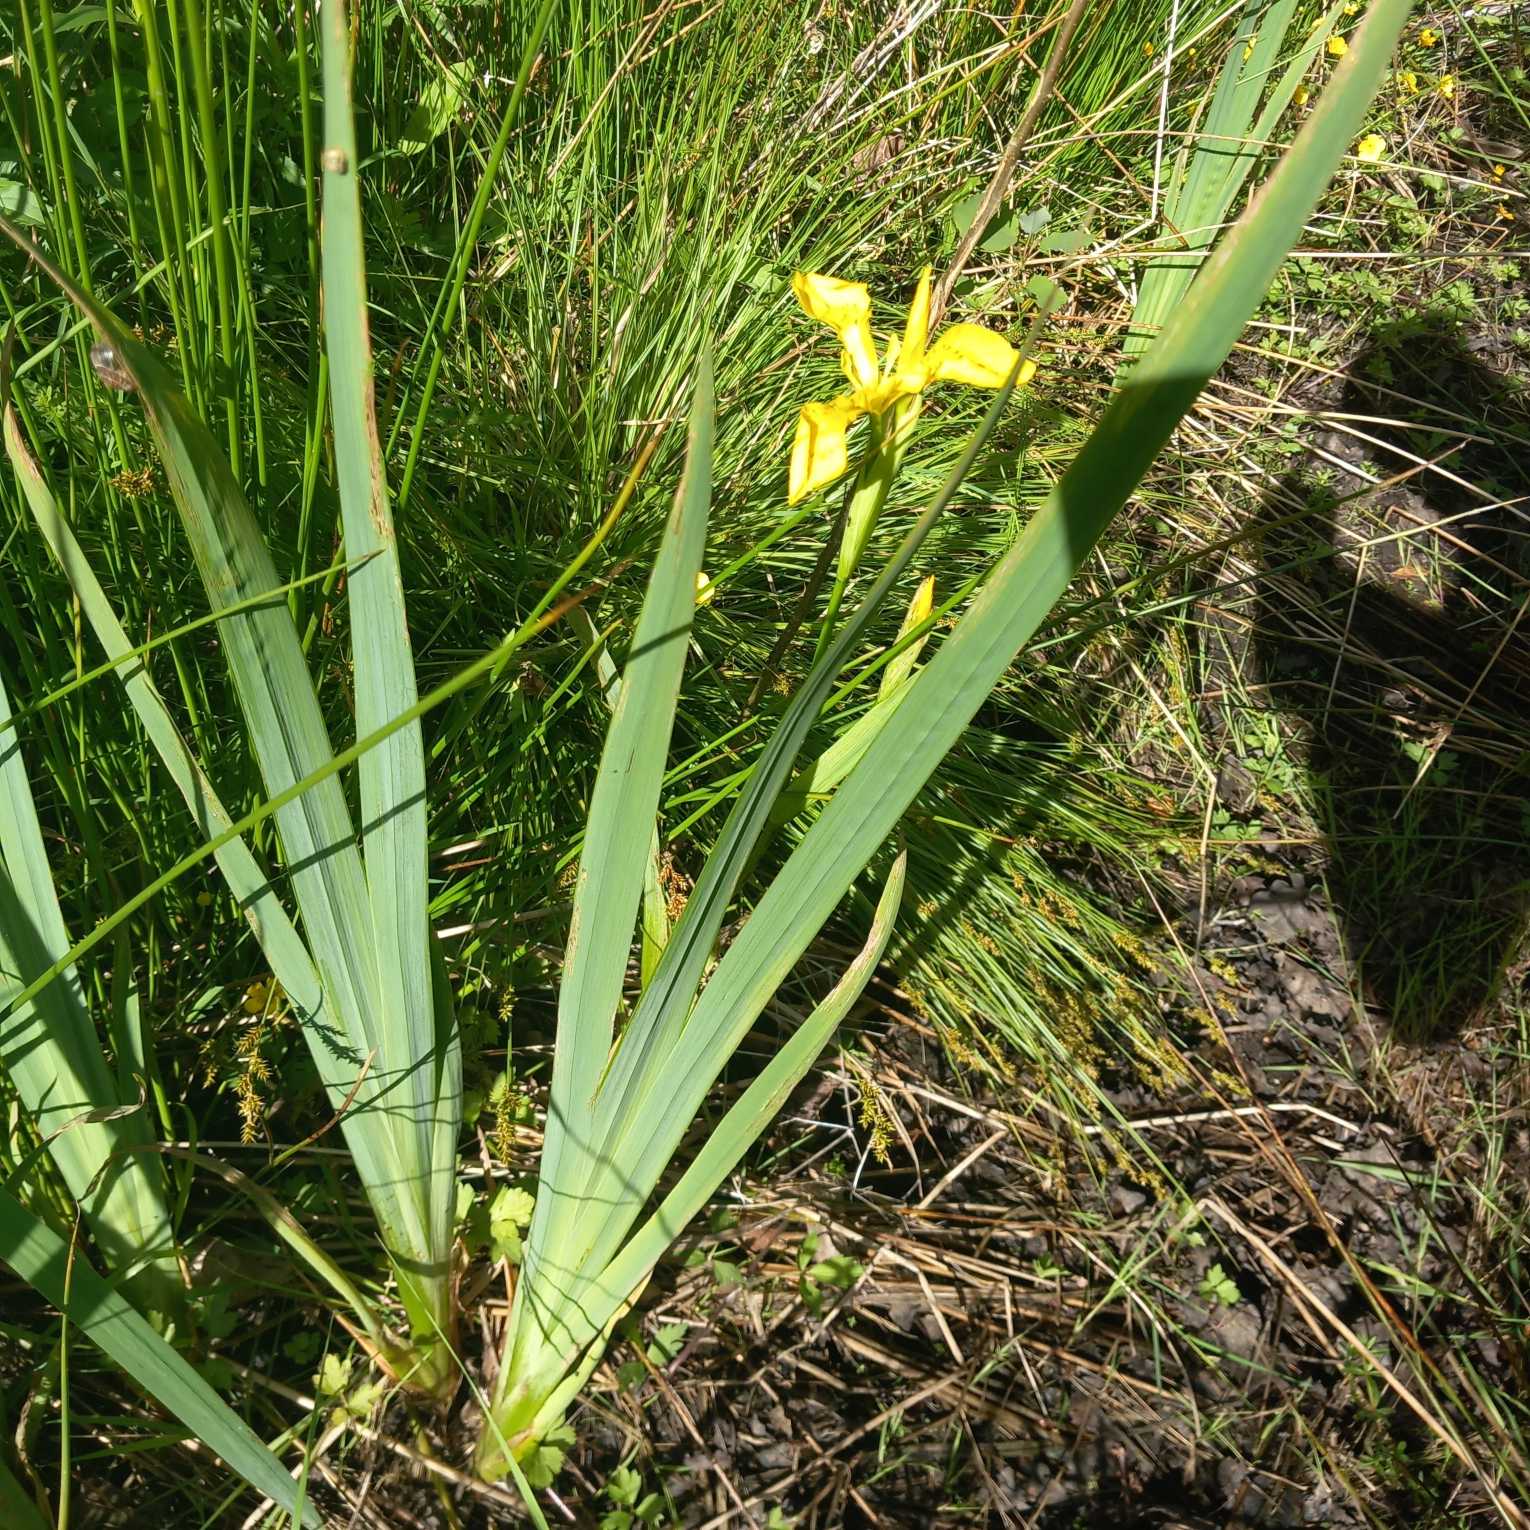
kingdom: Plantae
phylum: Tracheophyta
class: Liliopsida
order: Asparagales
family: Iridaceae
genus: Iris
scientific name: Iris pseudacorus
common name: Gul iris
